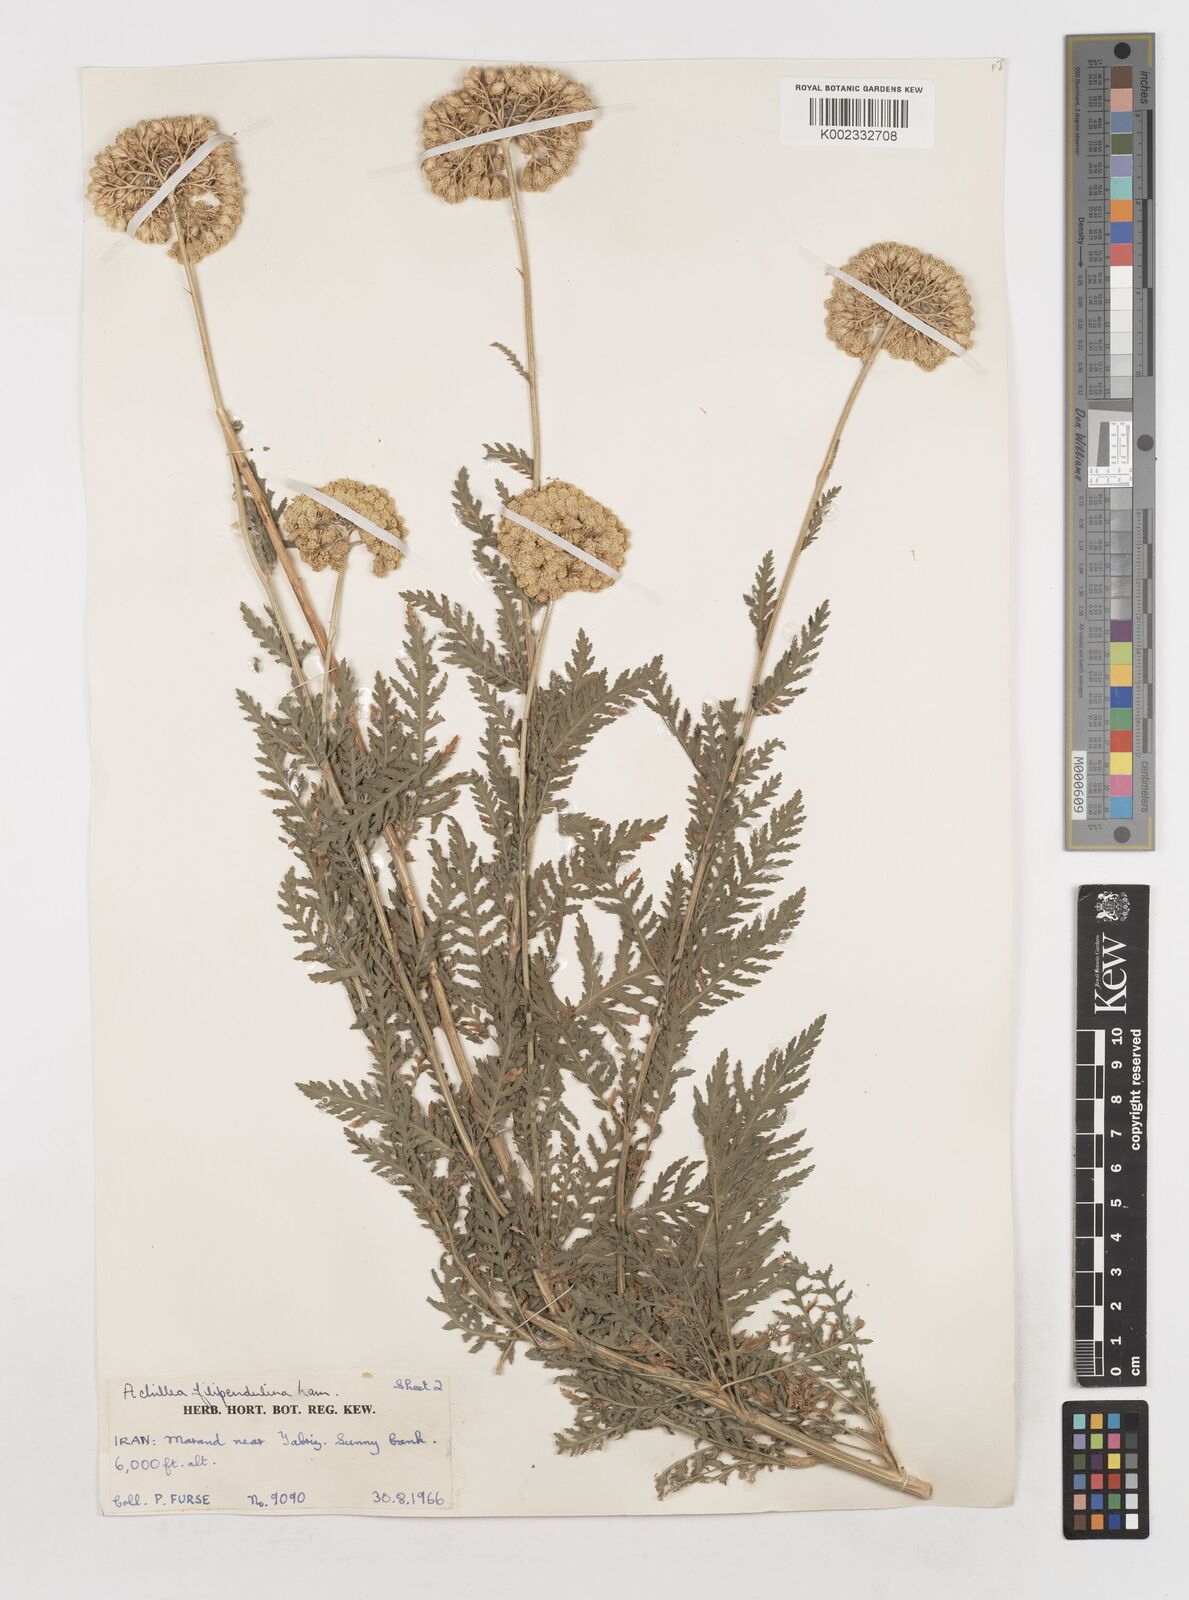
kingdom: Plantae
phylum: Tracheophyta
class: Magnoliopsida
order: Asterales
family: Asteraceae
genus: Achillea
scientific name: Achillea filipendulina
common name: Fernleaf yarrow
